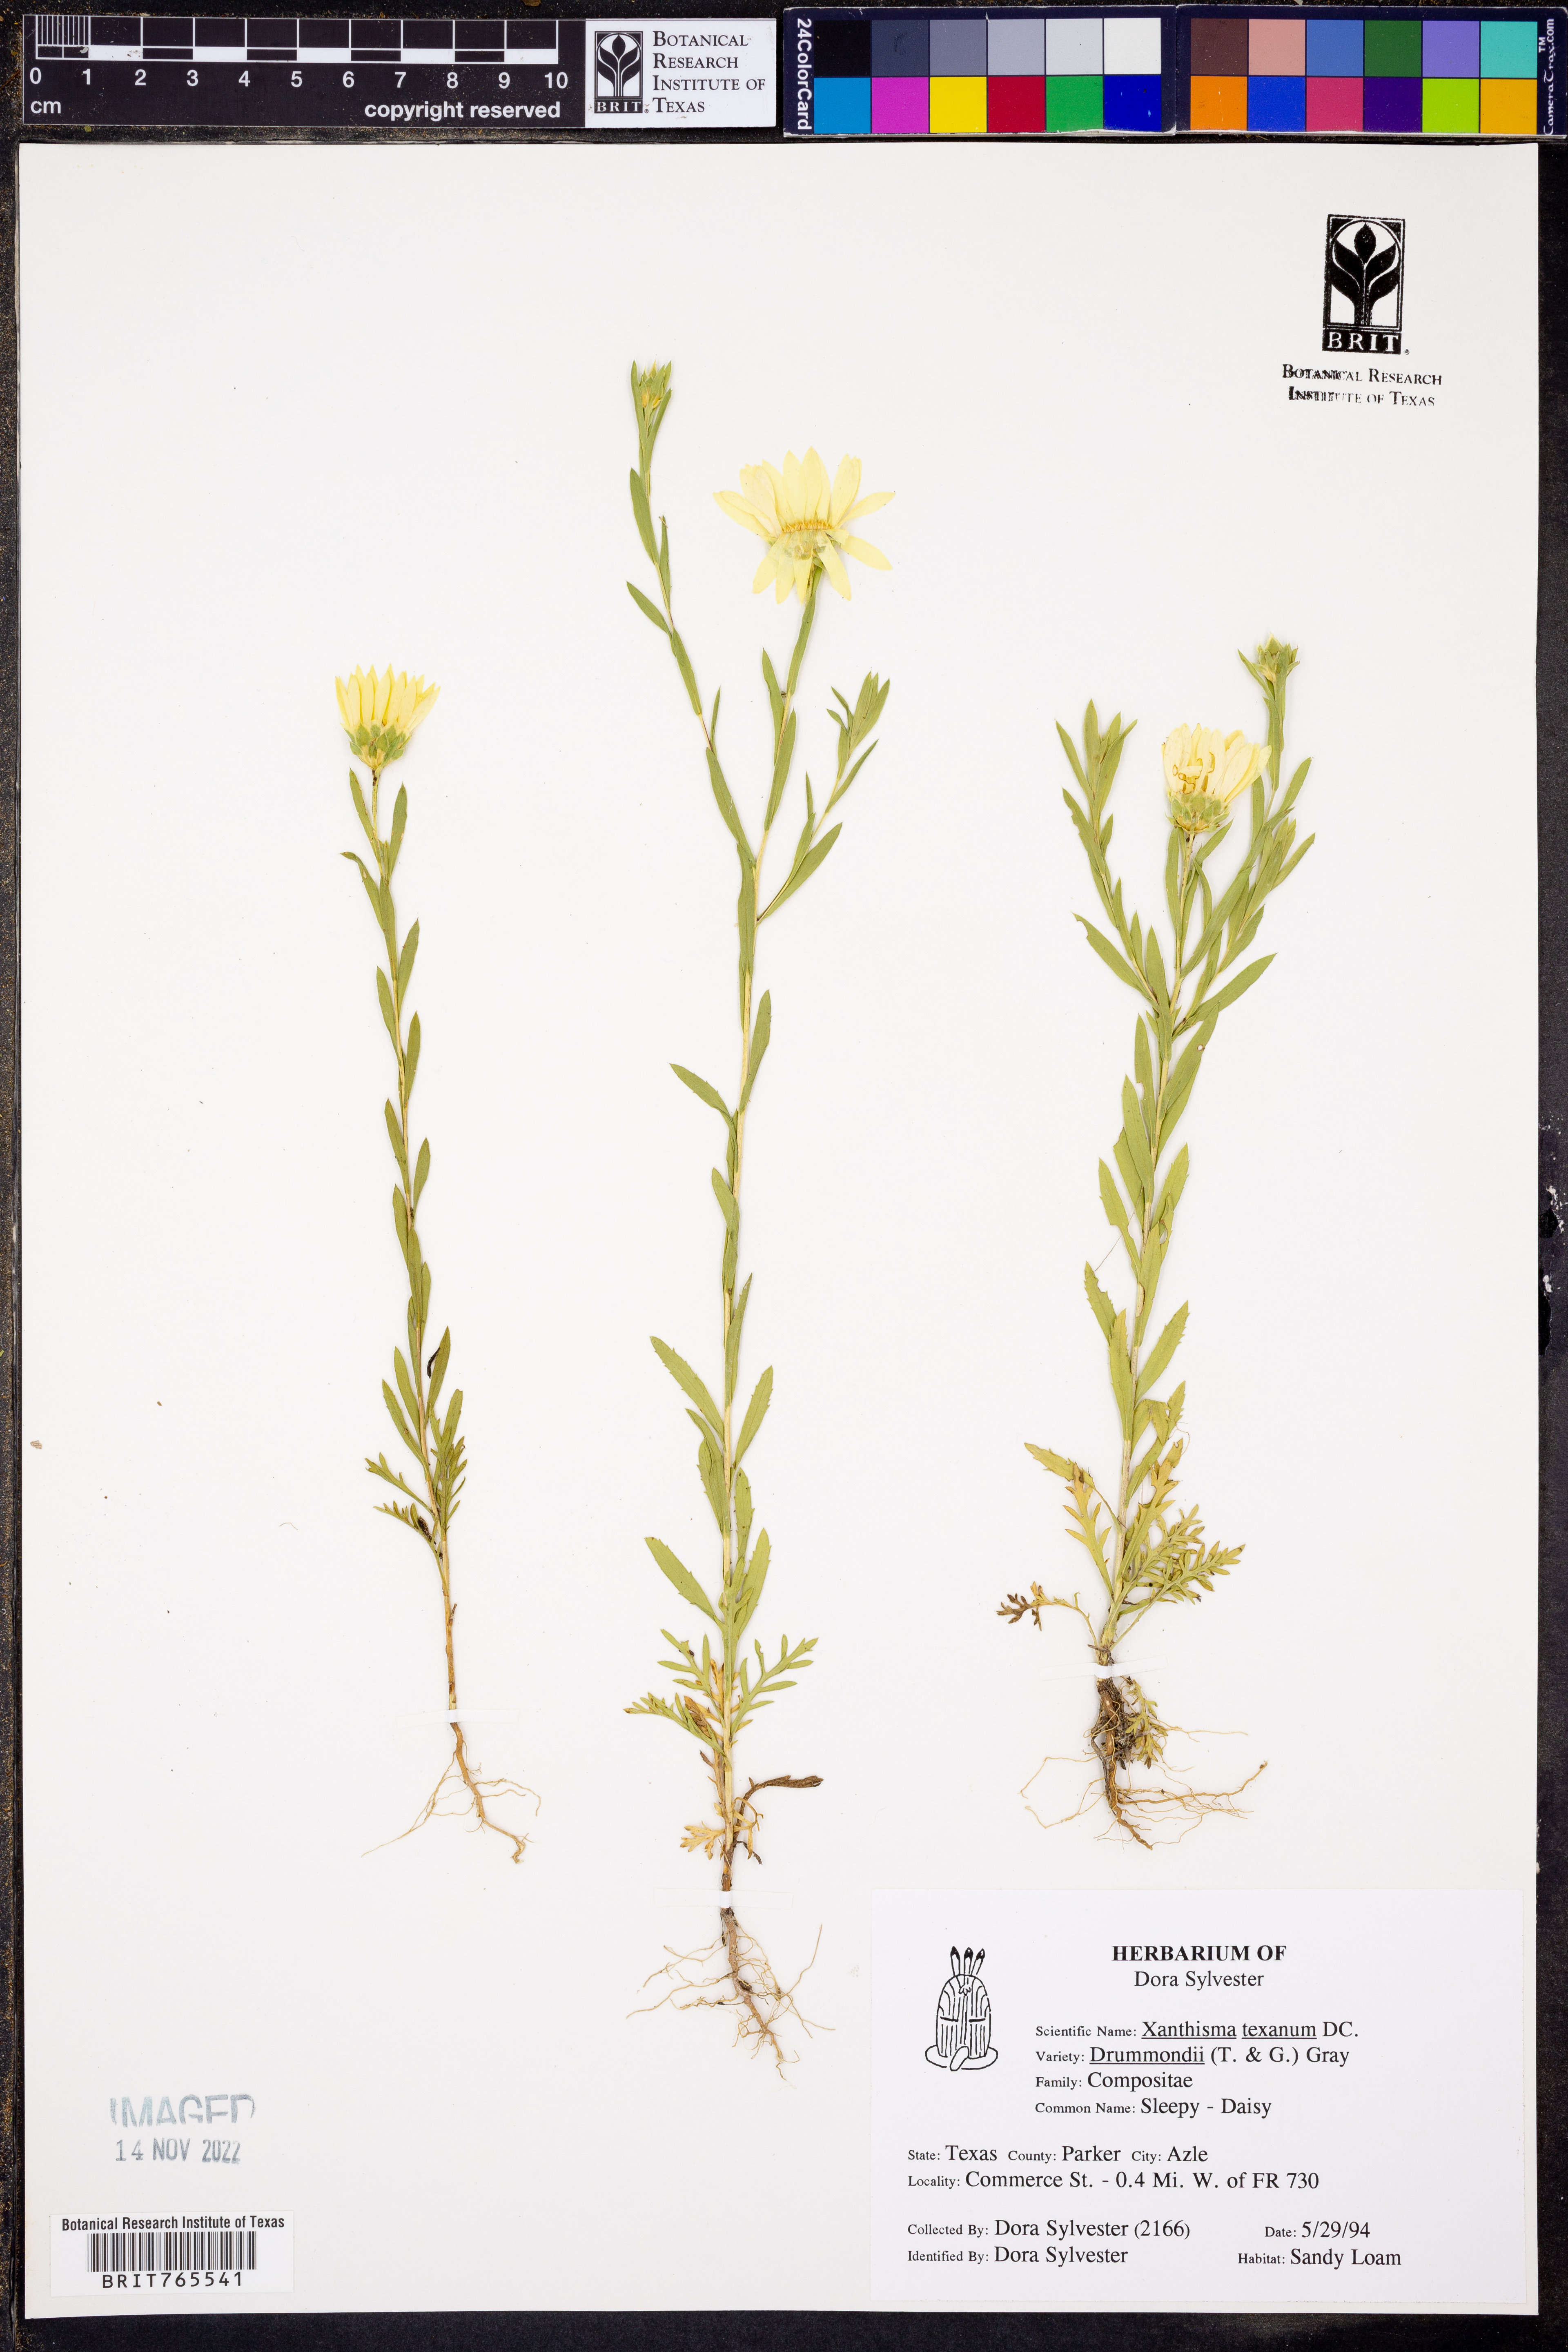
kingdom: Plantae
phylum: Tracheophyta
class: Magnoliopsida
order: Asterales
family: Asteraceae
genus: Xanthisma
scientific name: Xanthisma texanum
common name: Texas sleepy daisy
